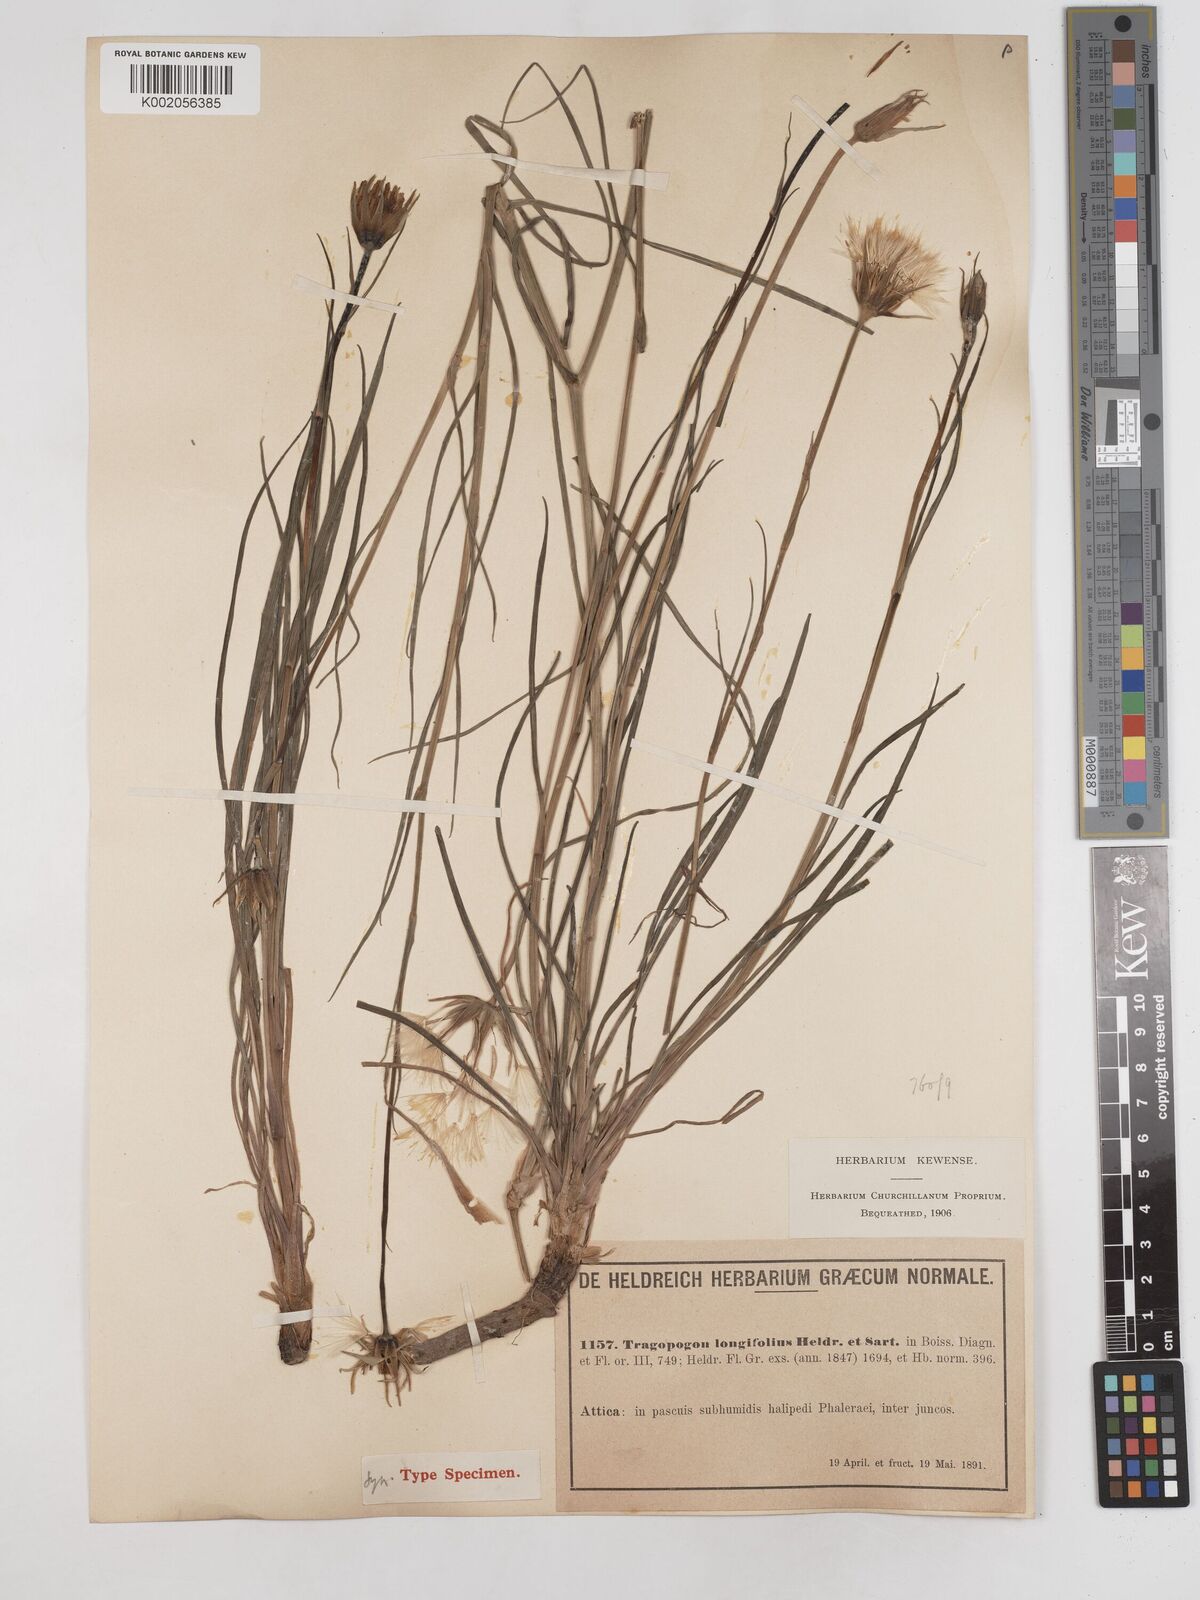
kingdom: Plantae
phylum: Tracheophyta
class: Magnoliopsida
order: Asterales
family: Asteraceae
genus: Tragopogon
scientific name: Tragopogon longifolius
